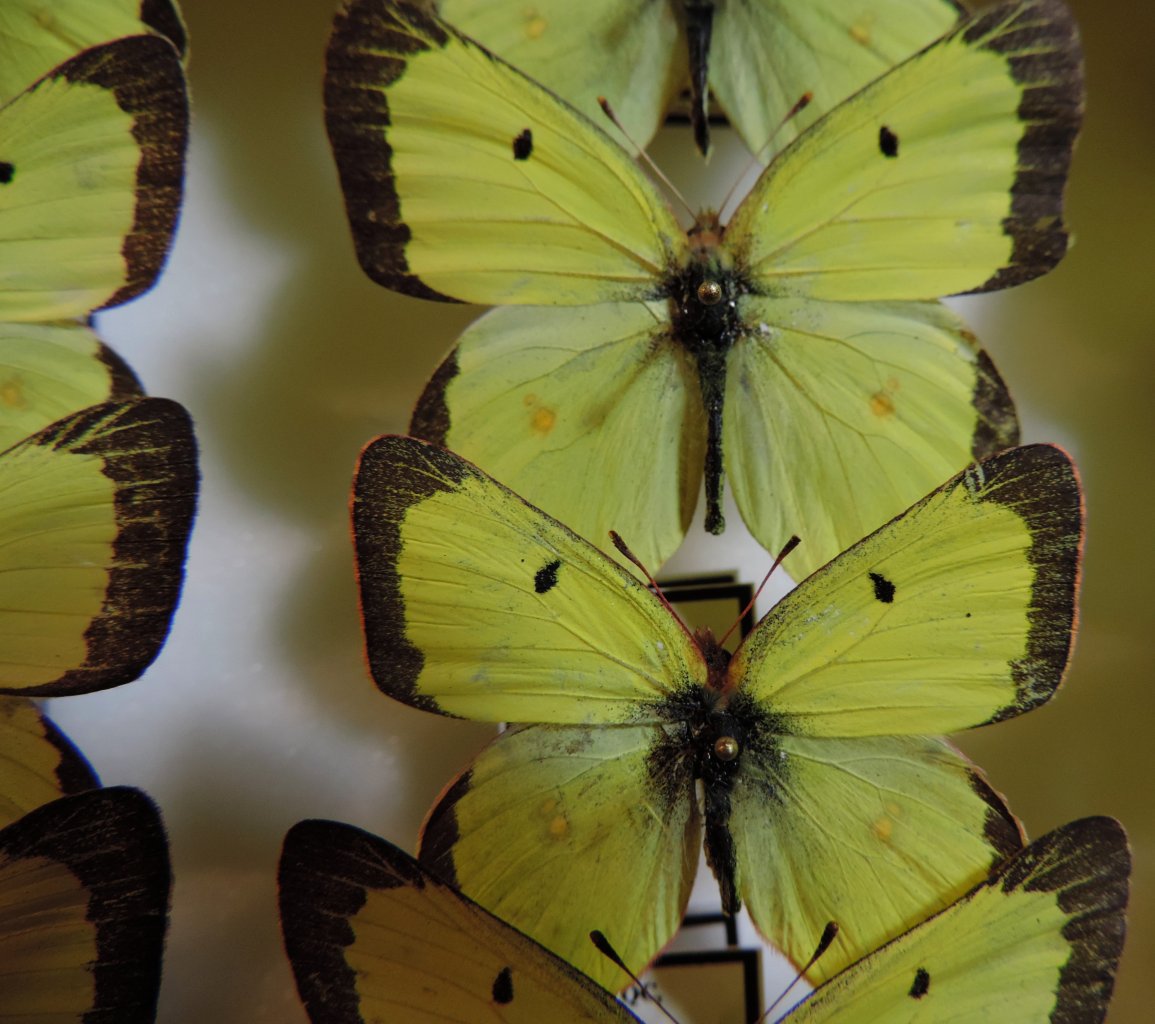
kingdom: Animalia
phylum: Arthropoda
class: Insecta
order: Lepidoptera
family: Pieridae
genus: Colias
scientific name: Colias philodice
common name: Clouded Sulphur
